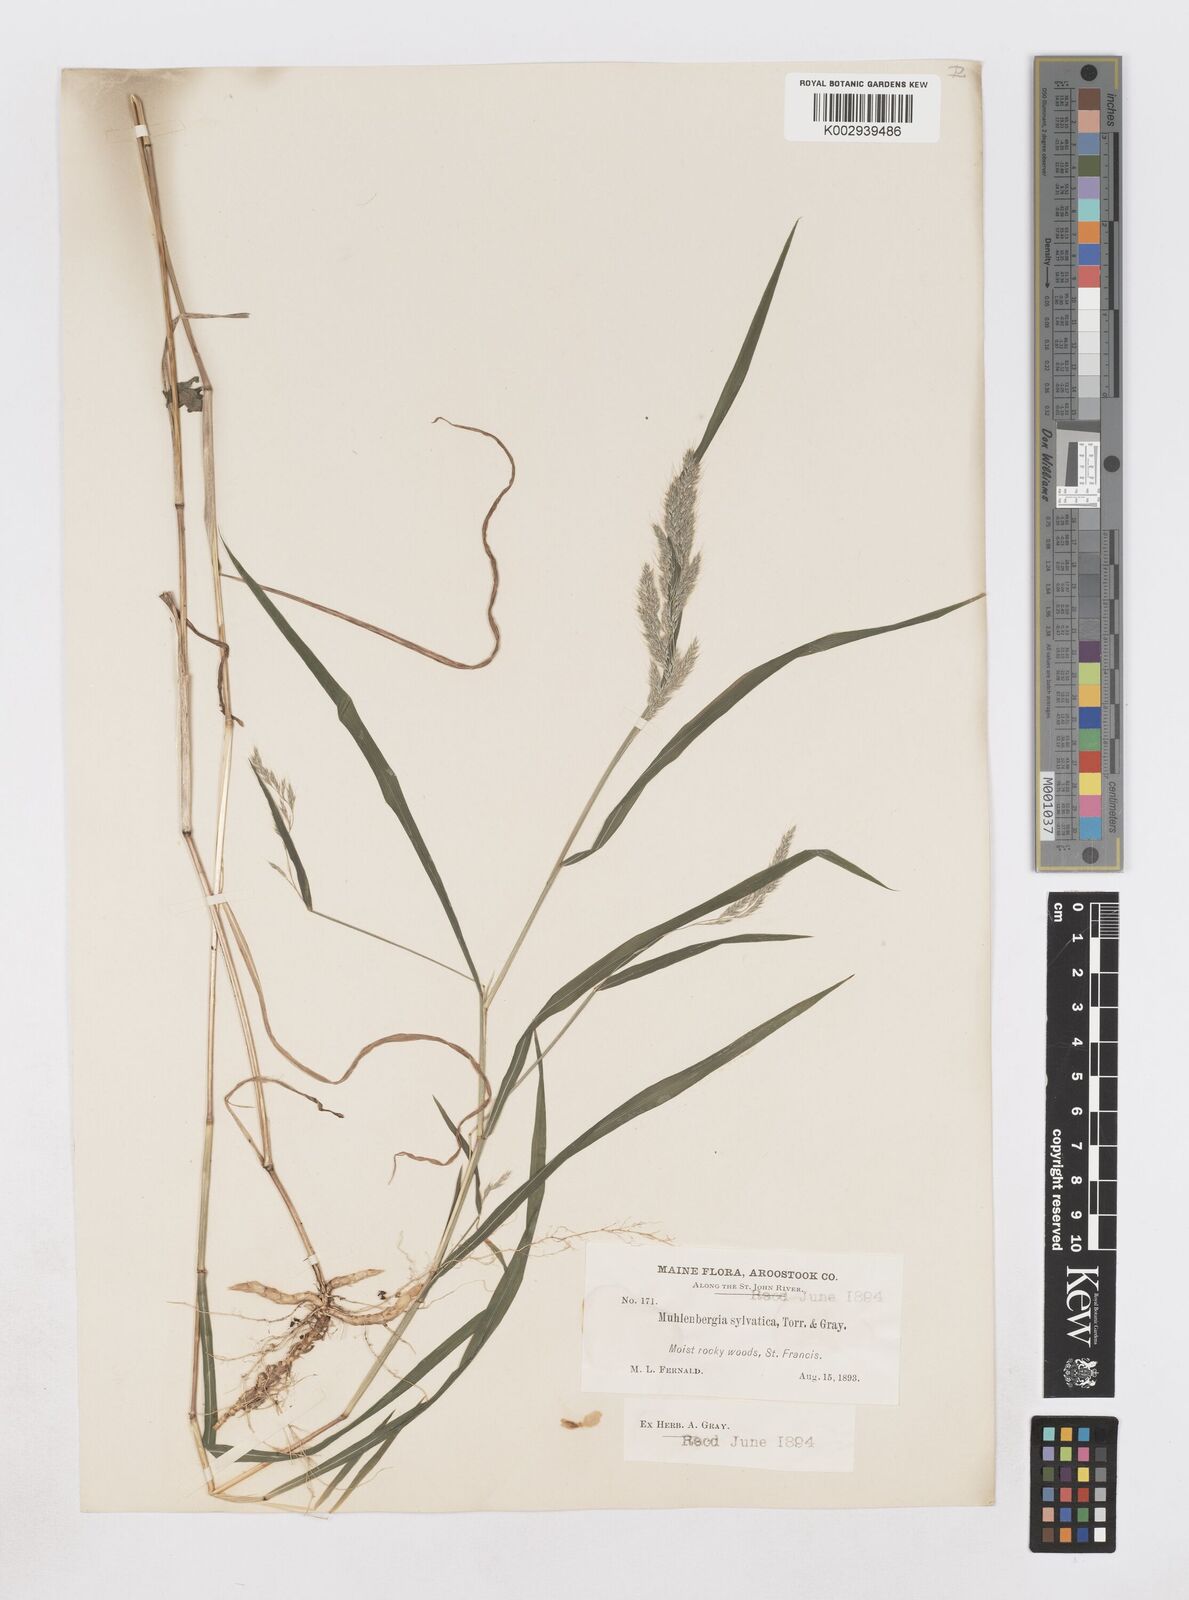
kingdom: Plantae
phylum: Tracheophyta
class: Liliopsida
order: Poales
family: Poaceae
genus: Muhlenbergia
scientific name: Muhlenbergia sylvatica
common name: Woodland muhly
